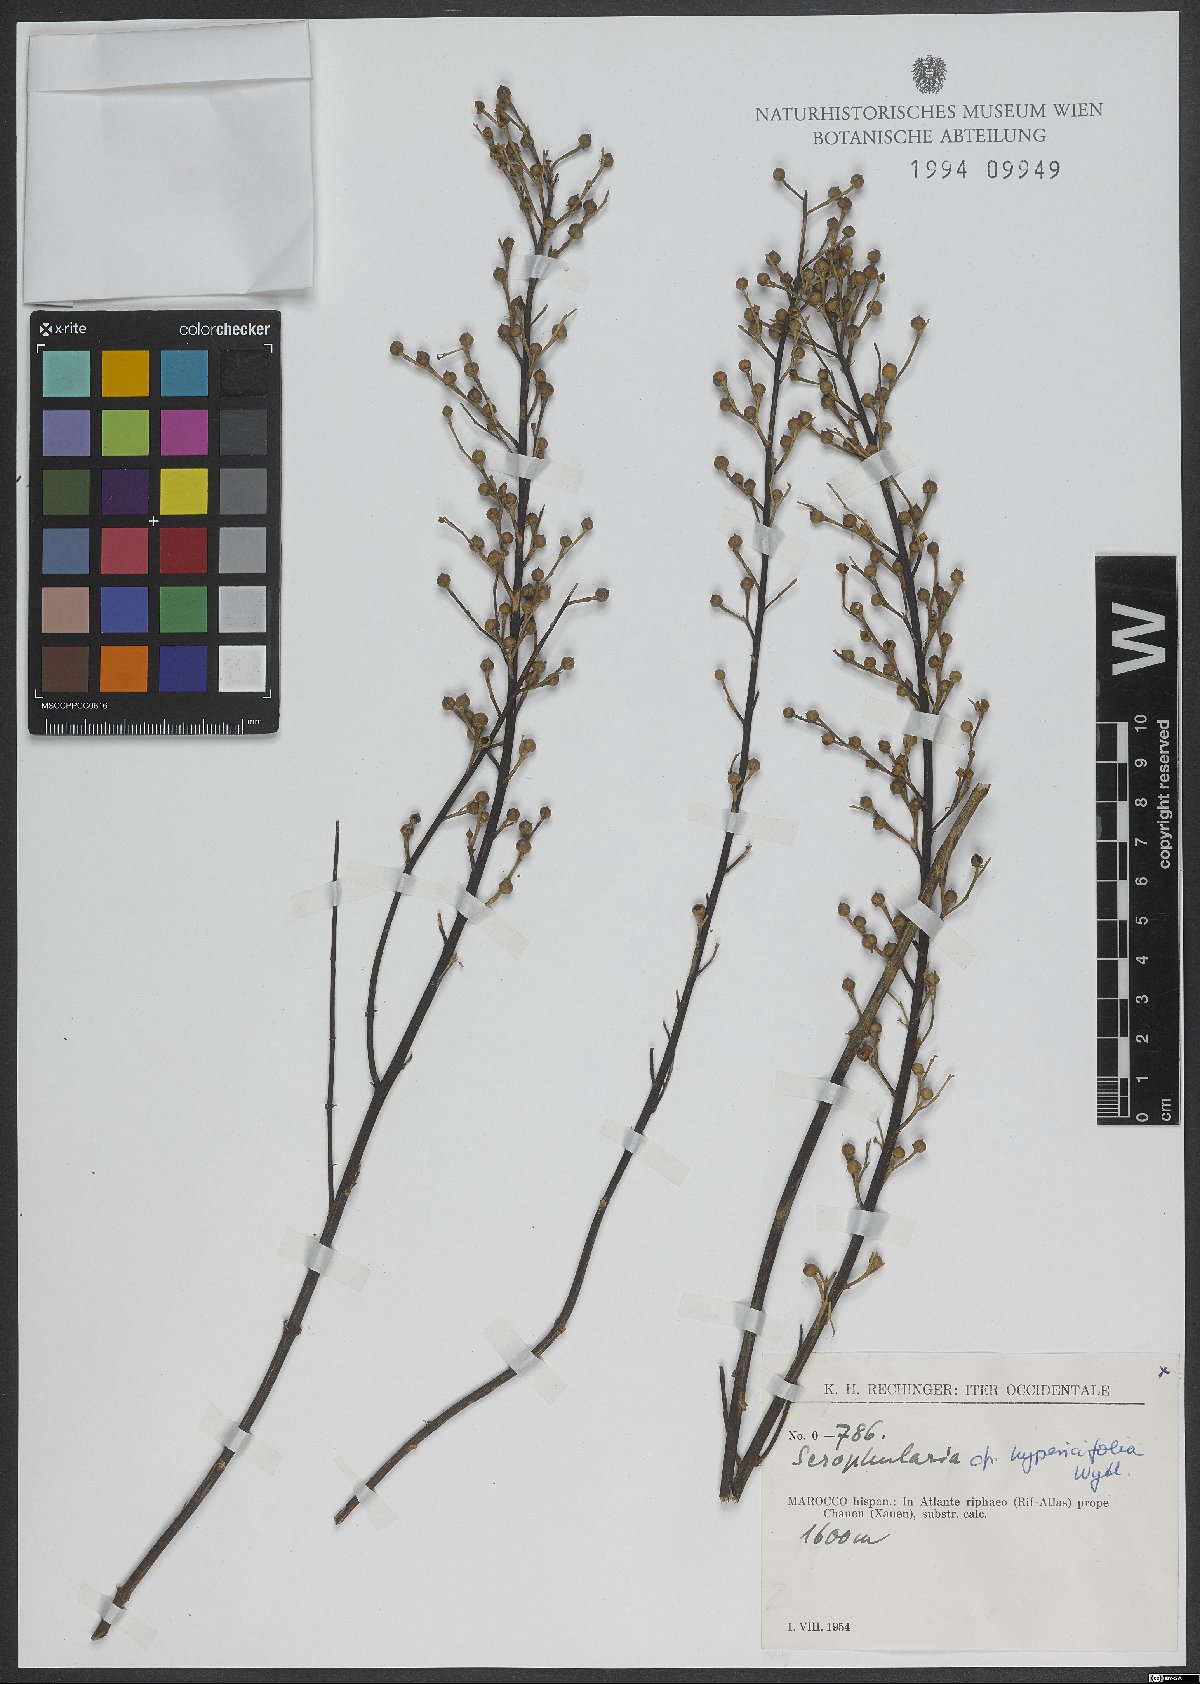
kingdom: Plantae
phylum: Tracheophyta
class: Magnoliopsida
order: Lamiales
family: Scrophulariaceae
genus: Scrophularia
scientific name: Scrophularia hypericifolia
